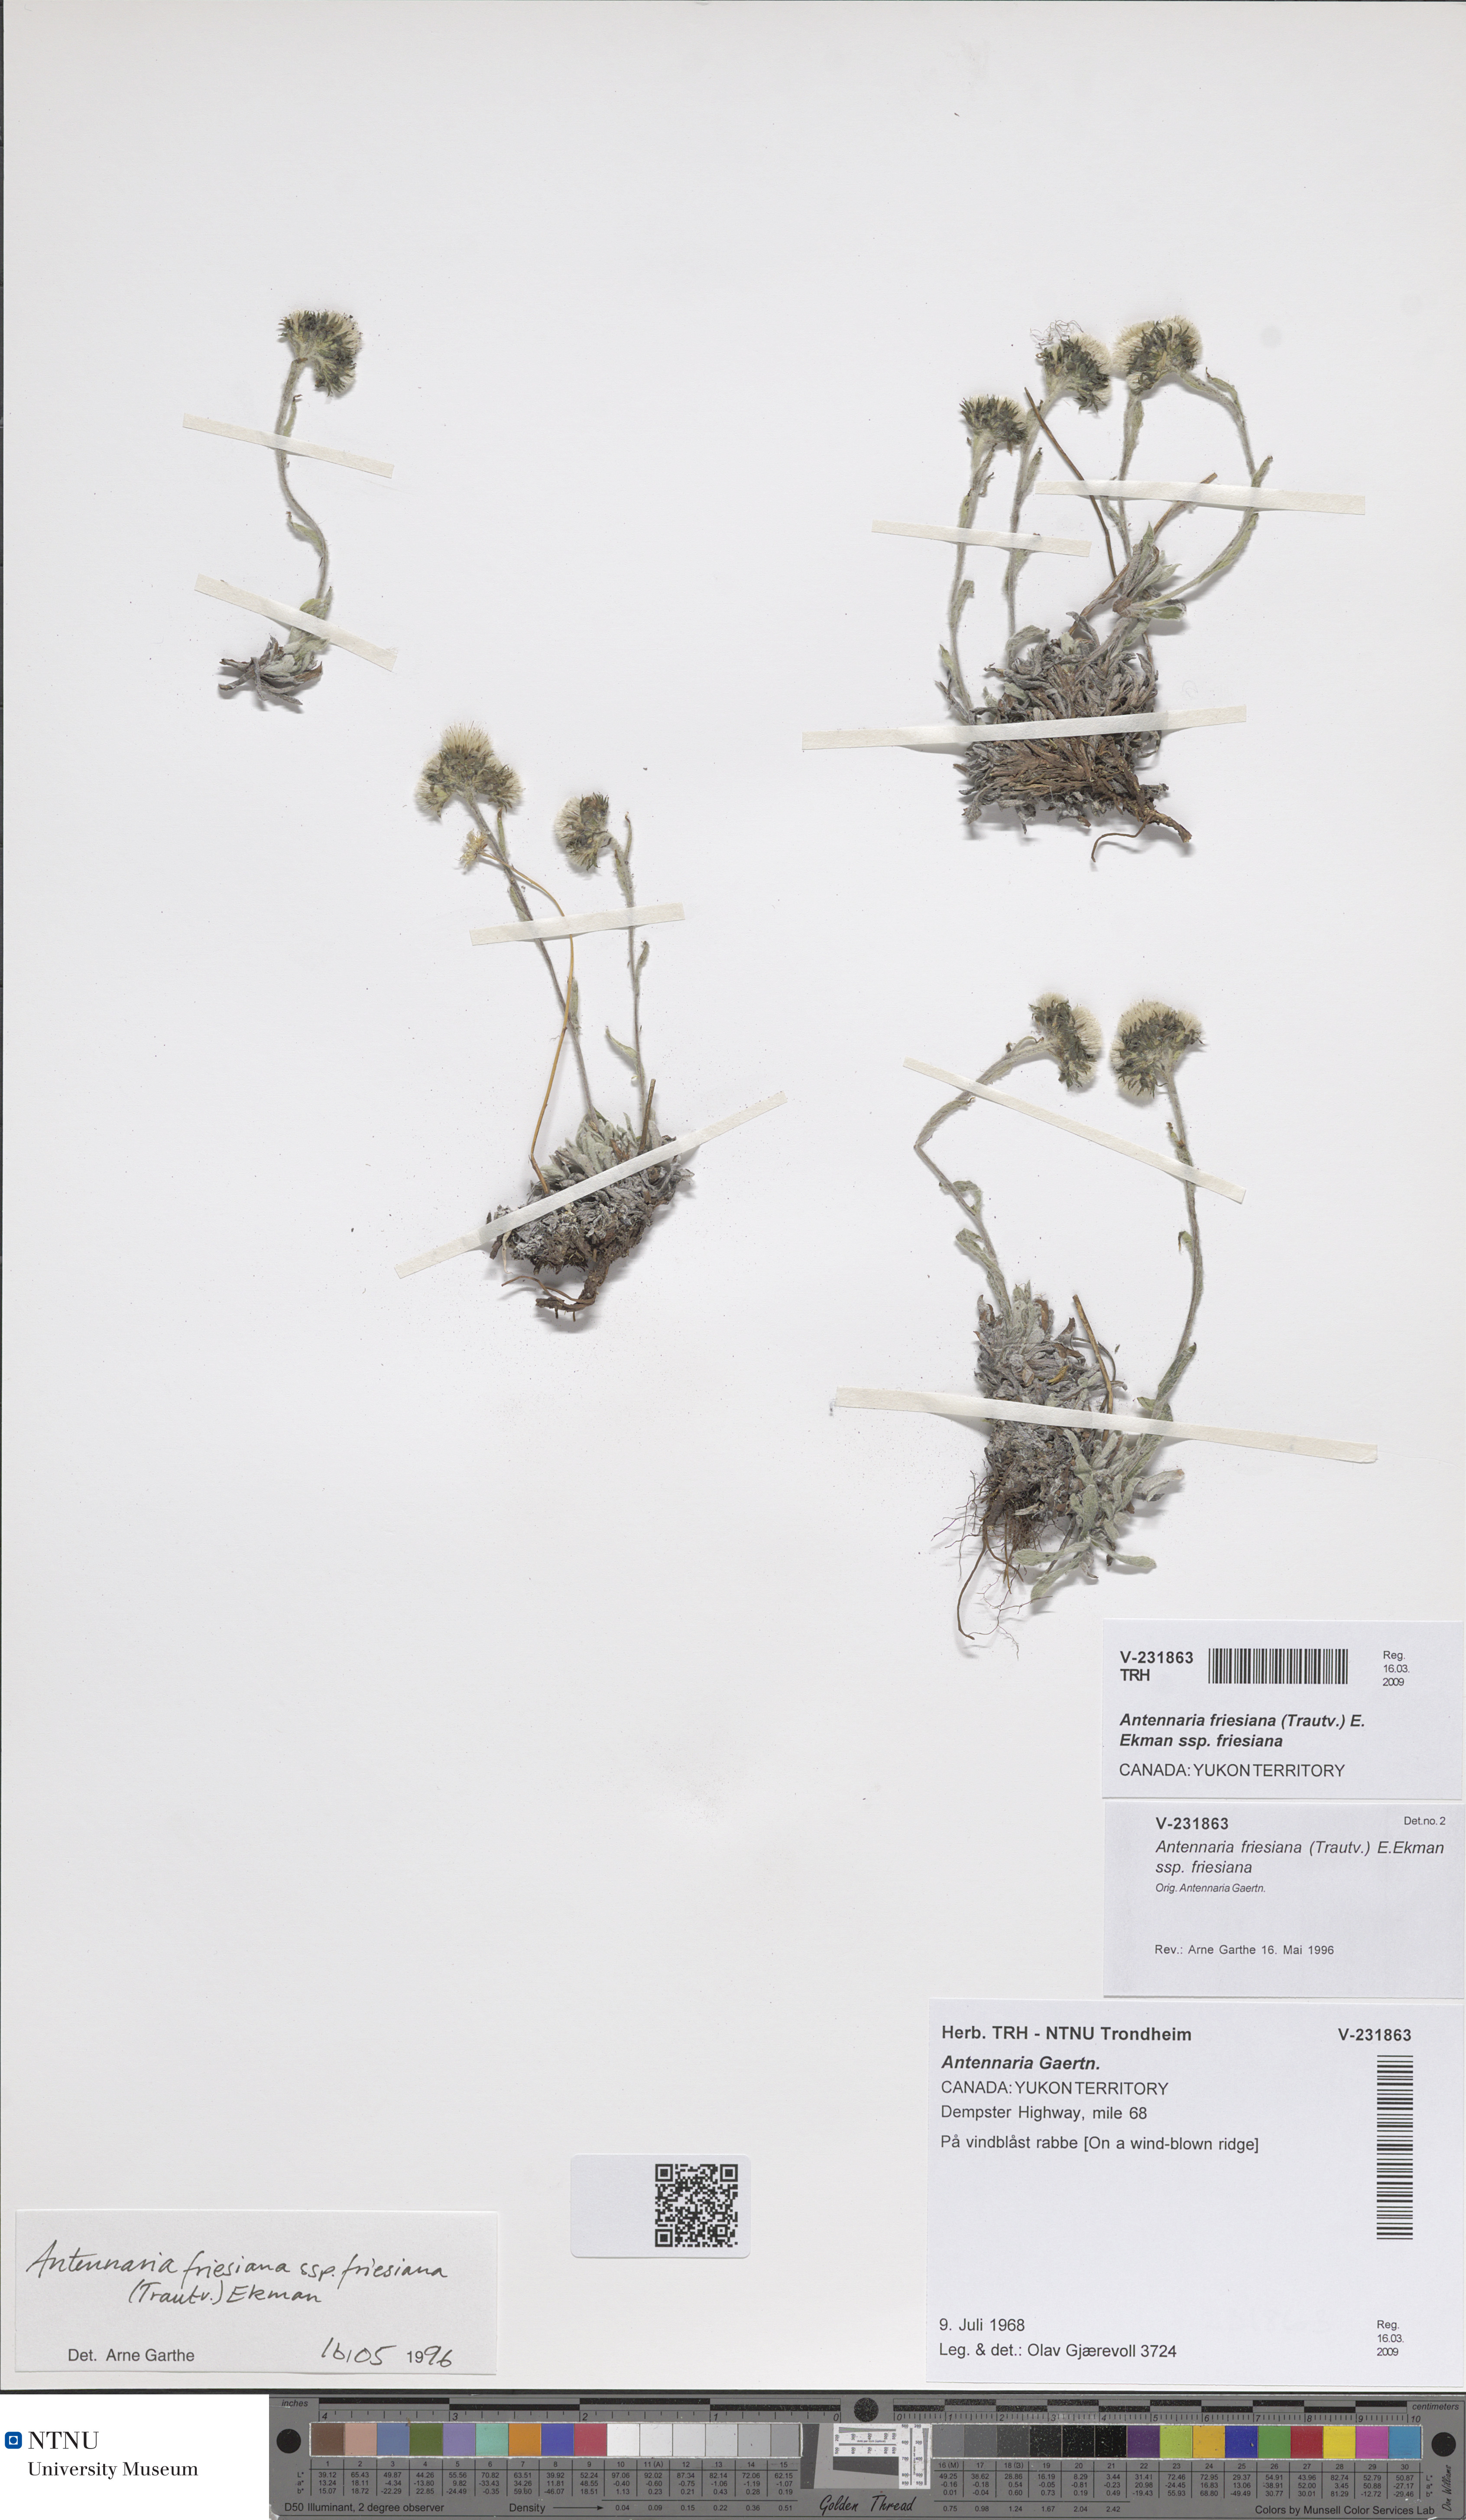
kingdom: Plantae
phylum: Tracheophyta
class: Magnoliopsida
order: Asterales
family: Asteraceae
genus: Antennaria
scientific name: Antennaria friesiana
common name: Fries' pussytoes
